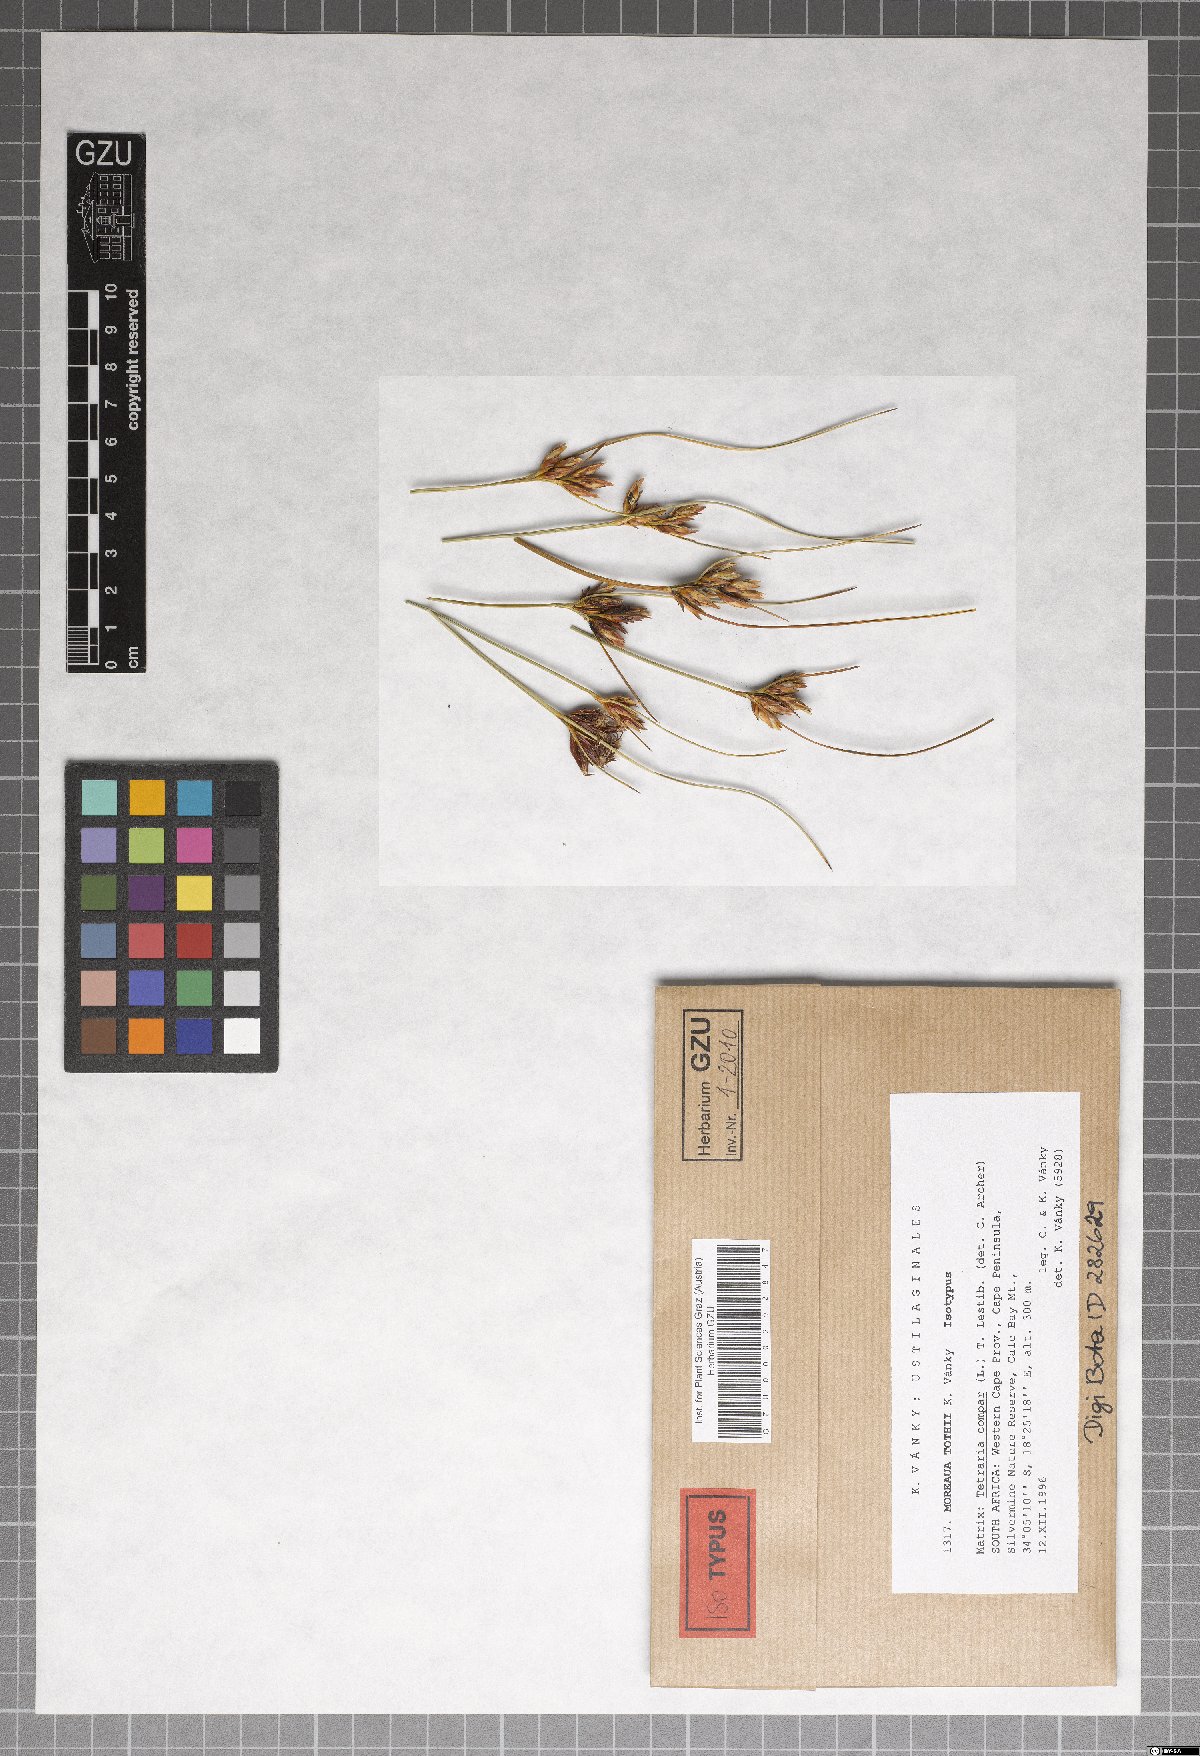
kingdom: Fungi
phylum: Basidiomycota
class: Ustilaginomycetes
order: Ustilaginales
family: Anthracoideaceae
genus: Moreaua
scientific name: Moreaua tothii
